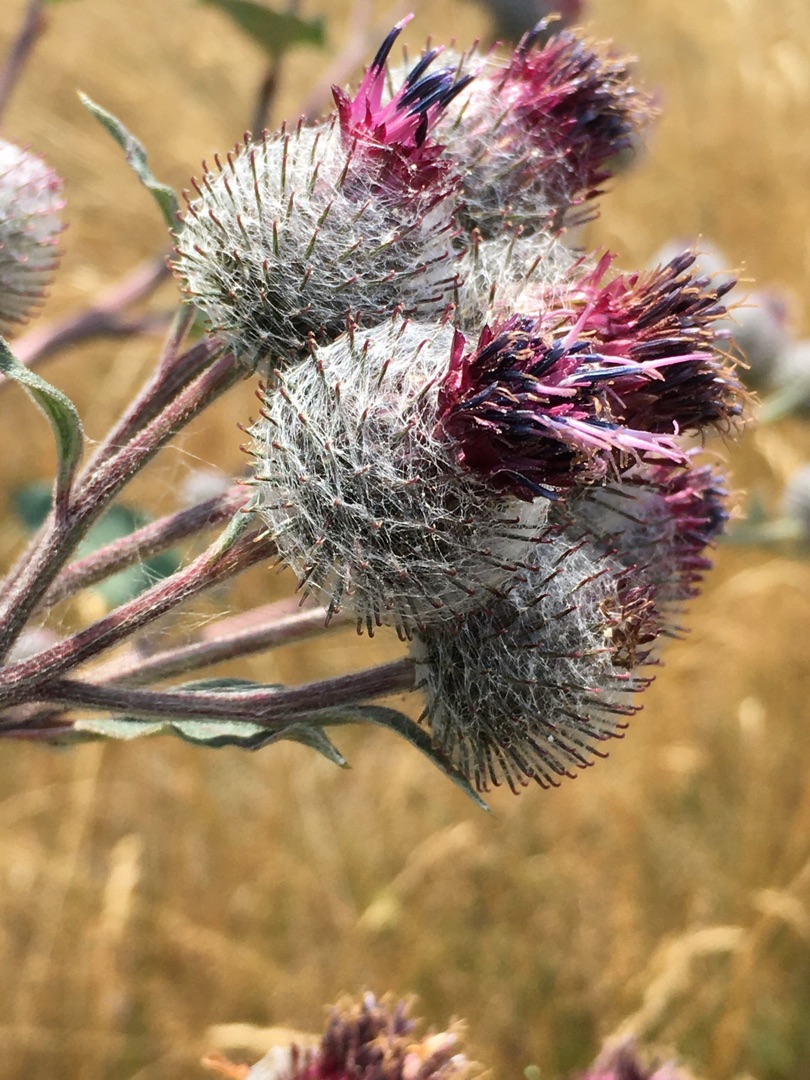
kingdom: Plantae
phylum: Tracheophyta
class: Magnoliopsida
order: Asterales
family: Asteraceae
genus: Arctium
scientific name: Arctium tomentosum
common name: Filtet burre
